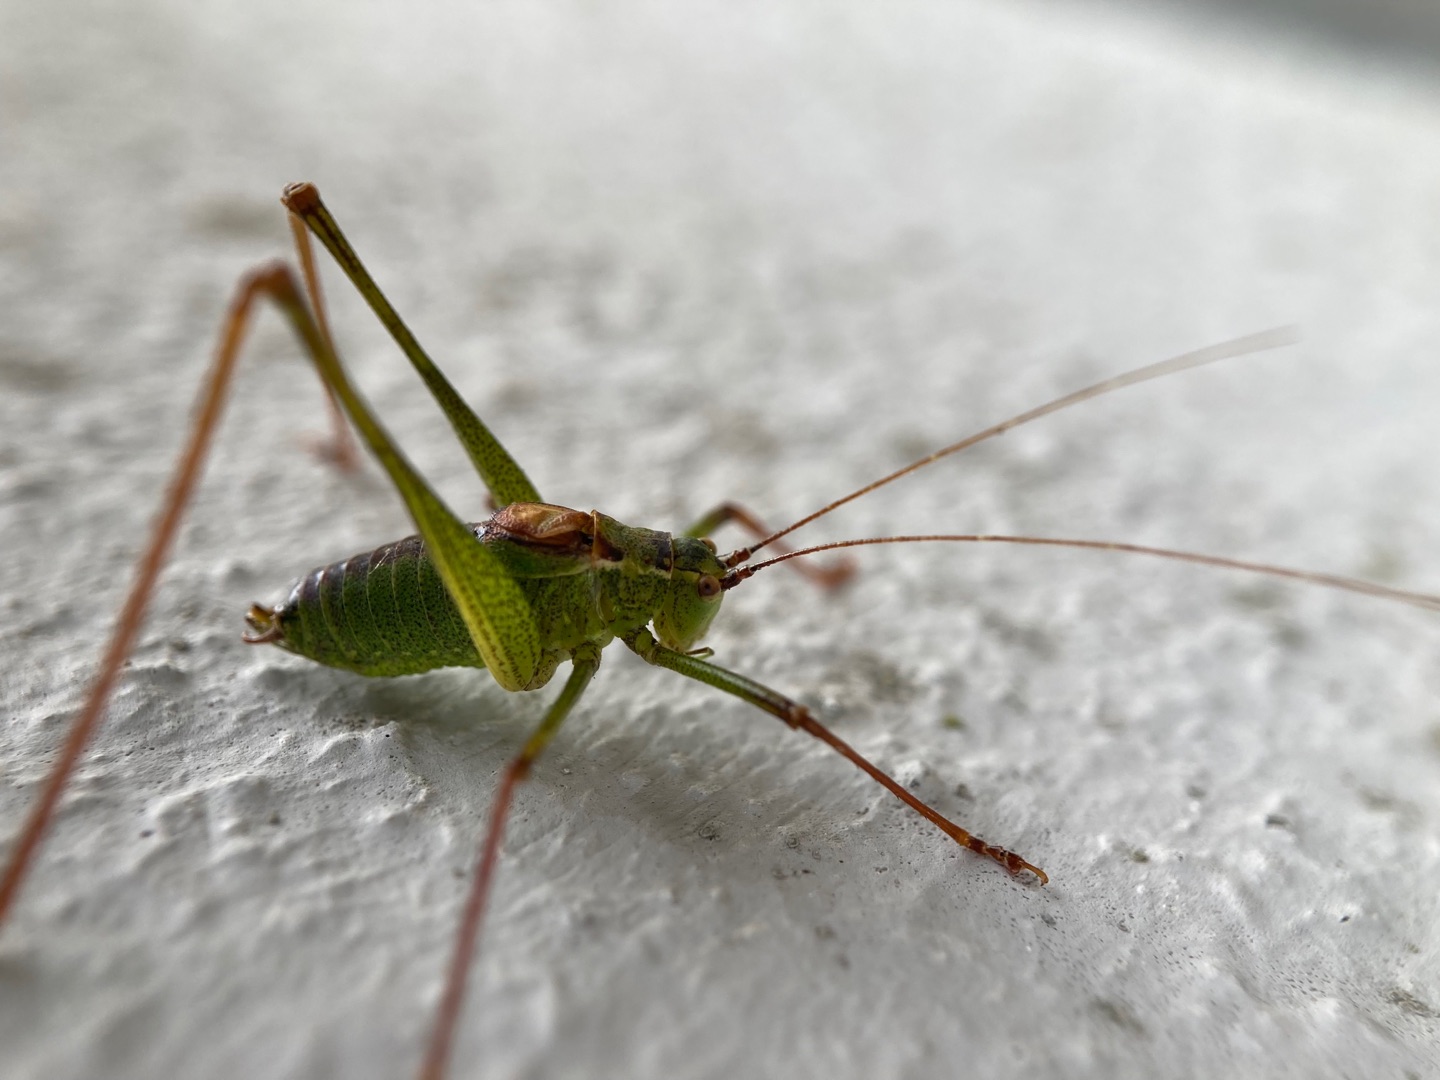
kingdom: Animalia
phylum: Arthropoda
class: Insecta
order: Orthoptera
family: Tettigoniidae
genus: Leptophyes
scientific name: Leptophyes punctatissima
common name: Krumknivgræshoppe
